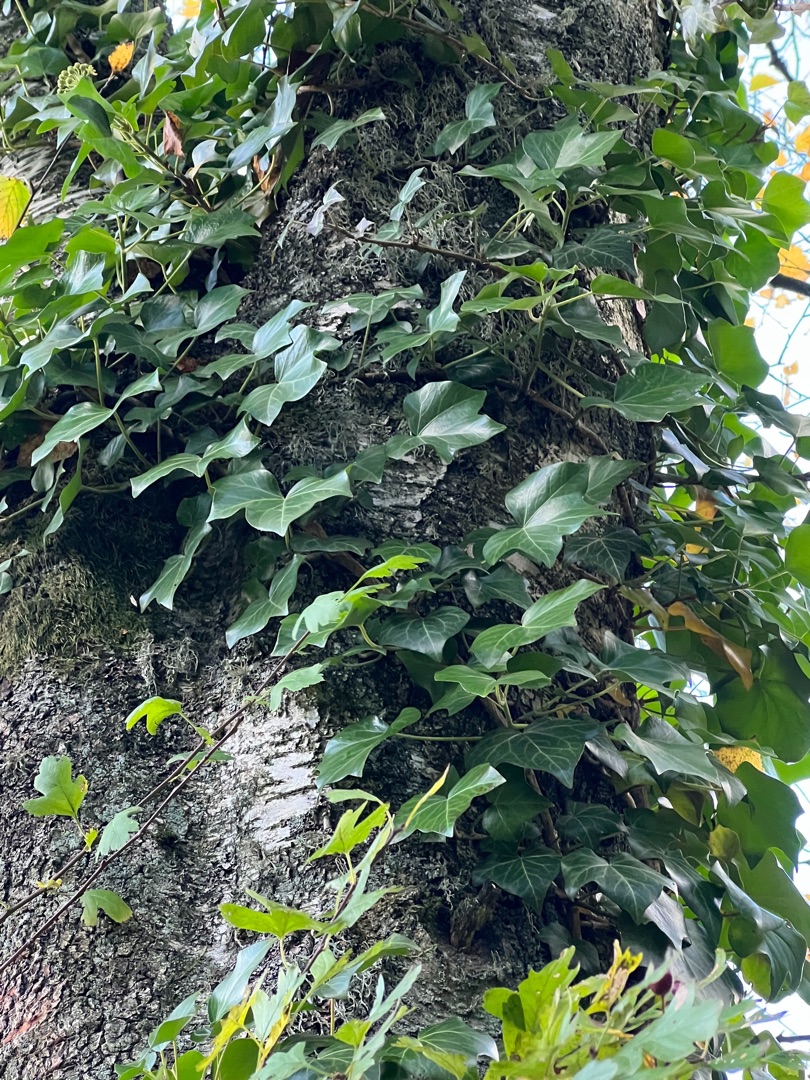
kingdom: Plantae
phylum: Tracheophyta
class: Magnoliopsida
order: Apiales
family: Araliaceae
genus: Hedera
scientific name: Hedera helix
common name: Vedbend
